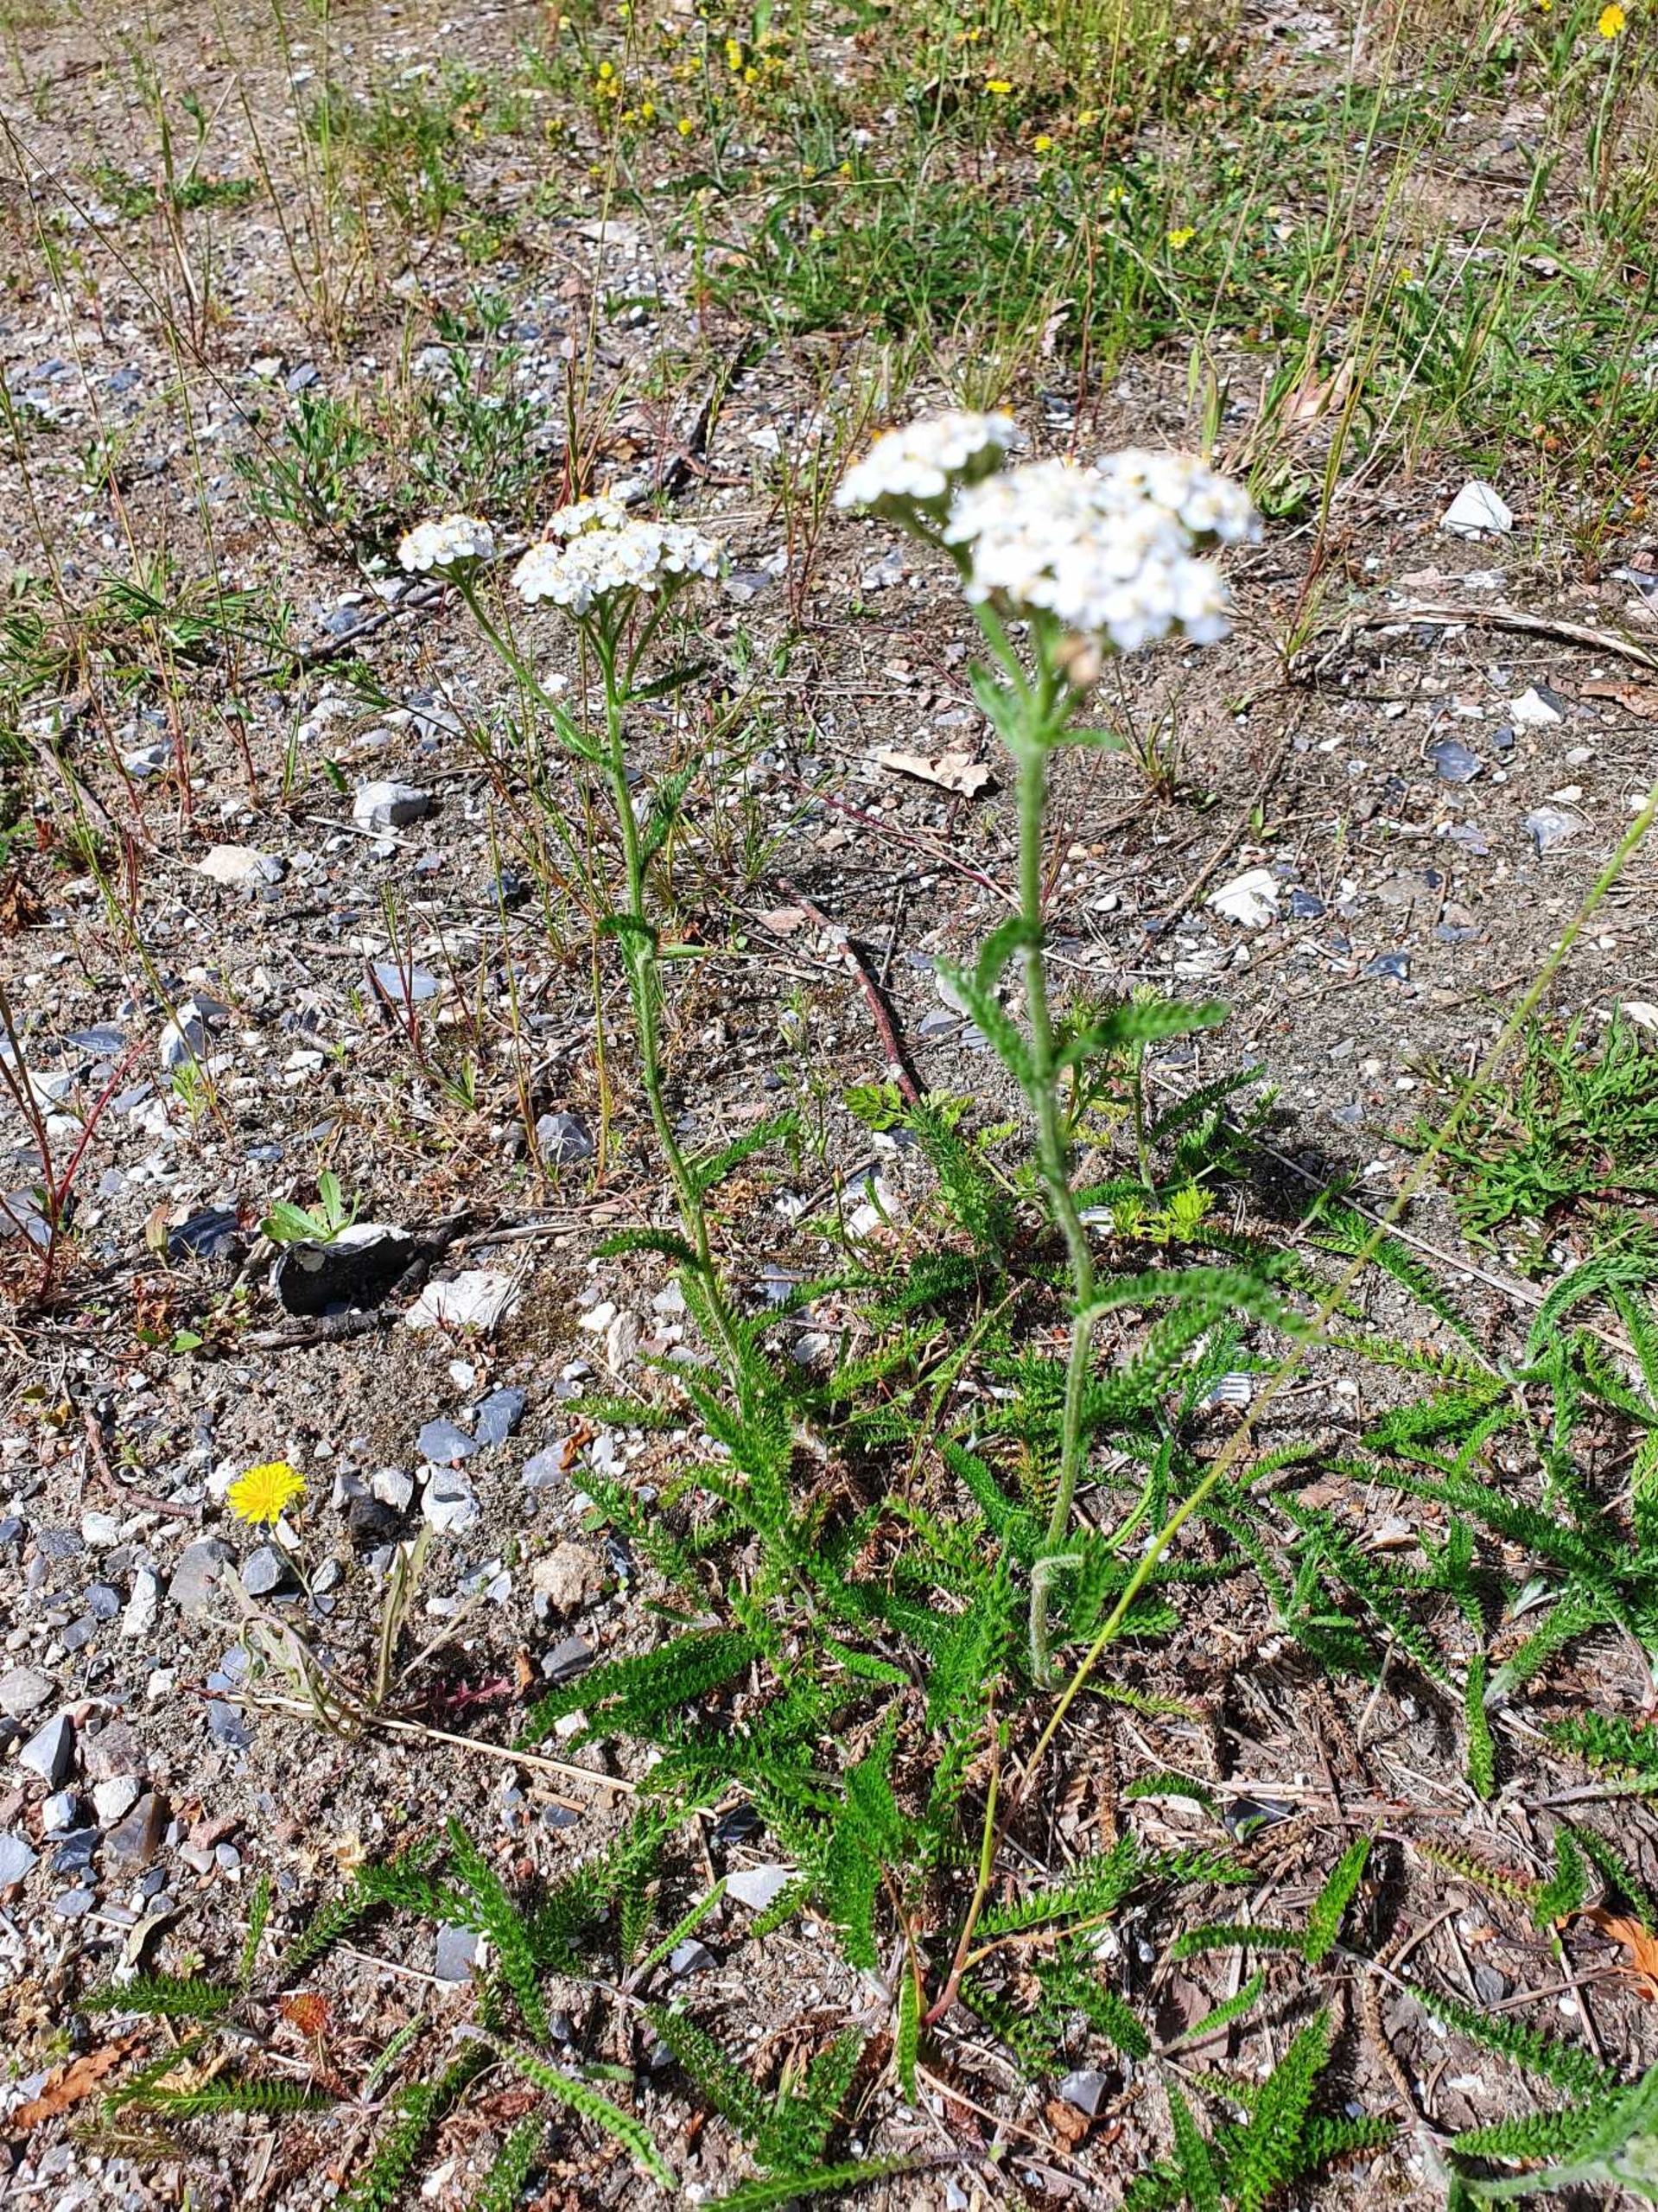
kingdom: Plantae
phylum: Tracheophyta
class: Magnoliopsida
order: Asterales
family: Asteraceae
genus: Achillea
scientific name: Achillea millefolium
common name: Almindelig røllike
